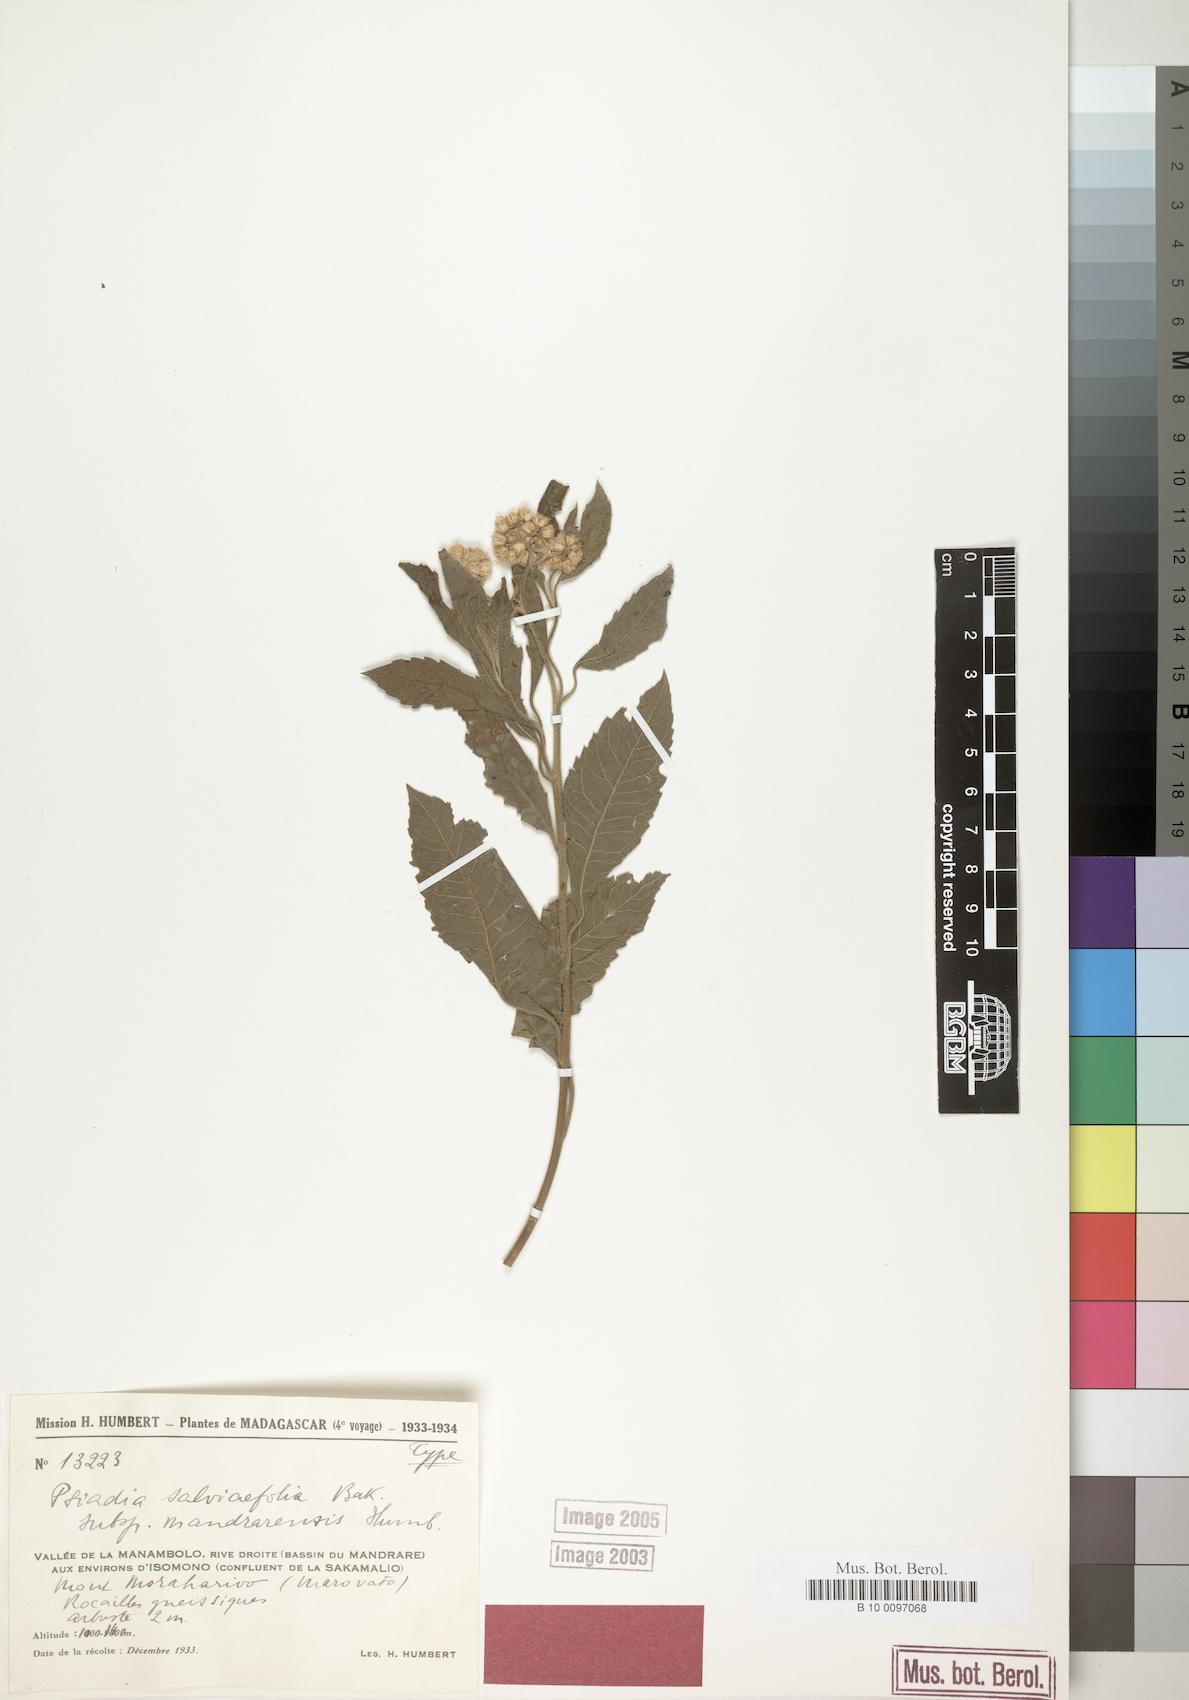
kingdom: Plantae
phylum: Tracheophyta
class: Magnoliopsida
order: Asterales
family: Asteraceae
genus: Psiadia
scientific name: Psiadia salviifolia
